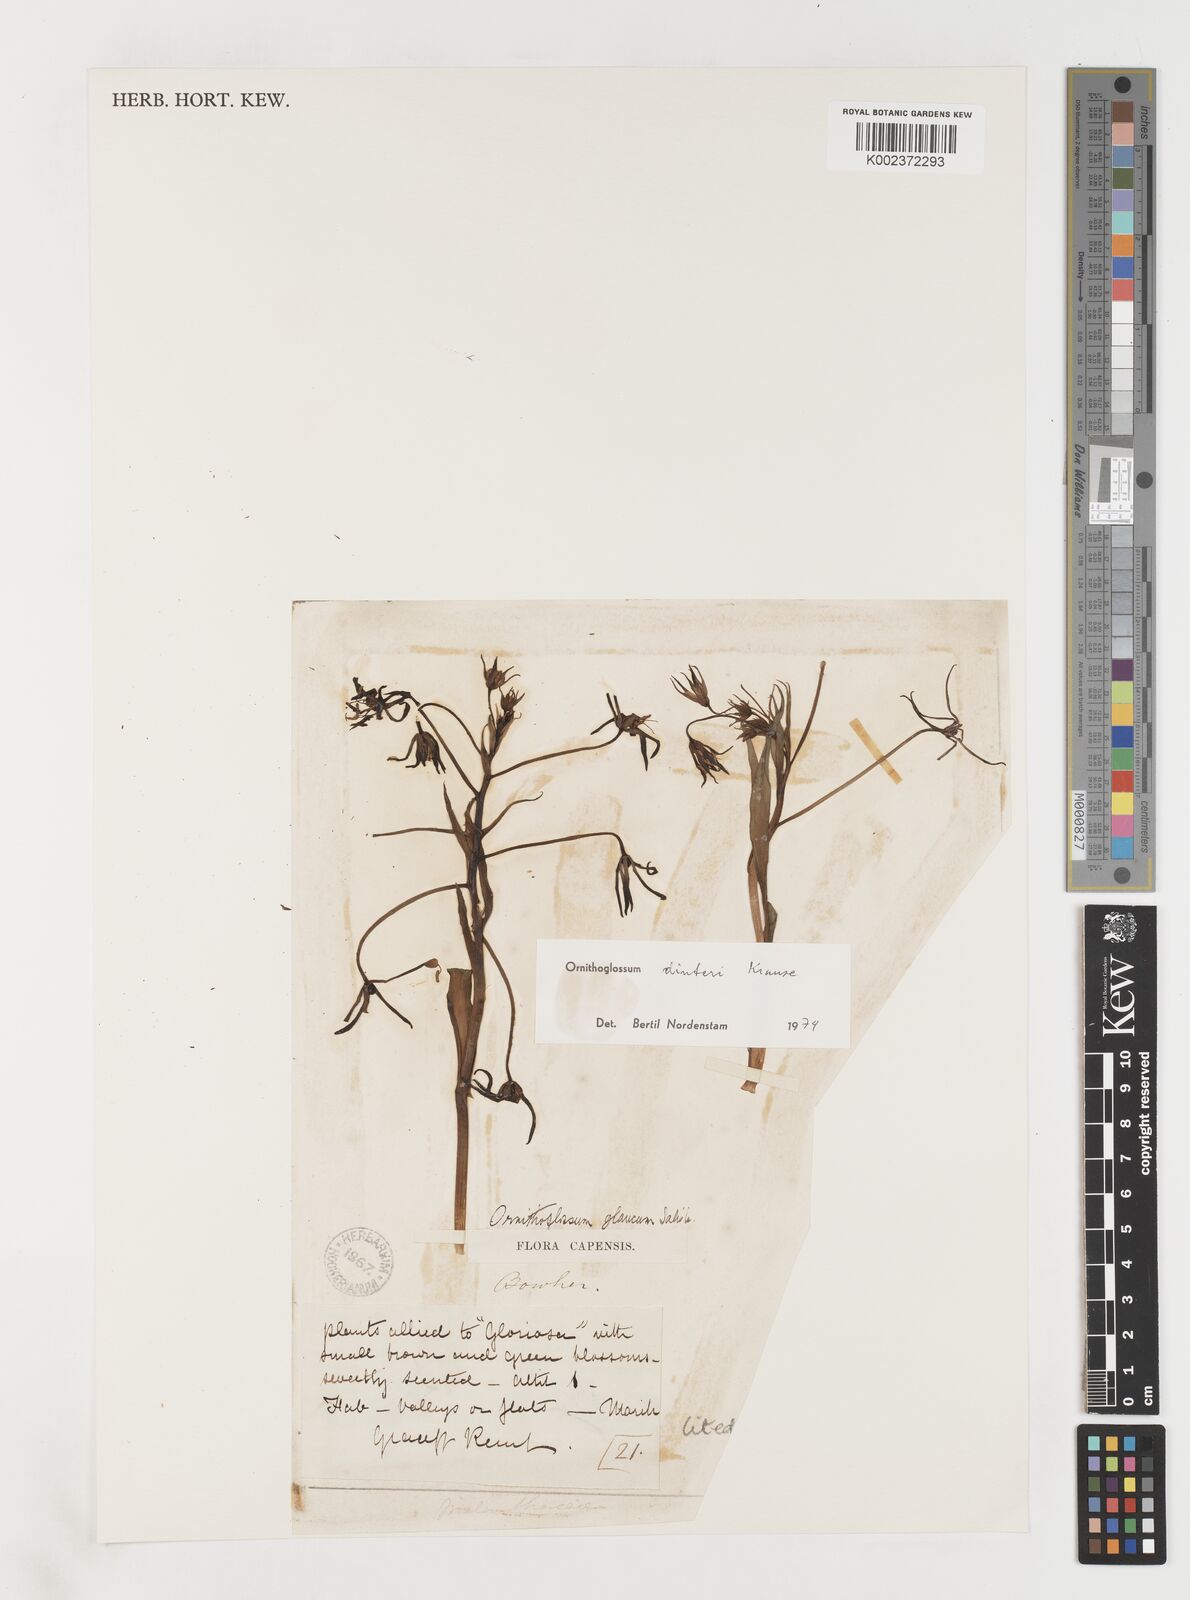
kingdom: Plantae
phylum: Tracheophyta
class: Liliopsida
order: Liliales
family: Colchicaceae
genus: Ornithoglossum
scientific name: Ornithoglossum dinteri
